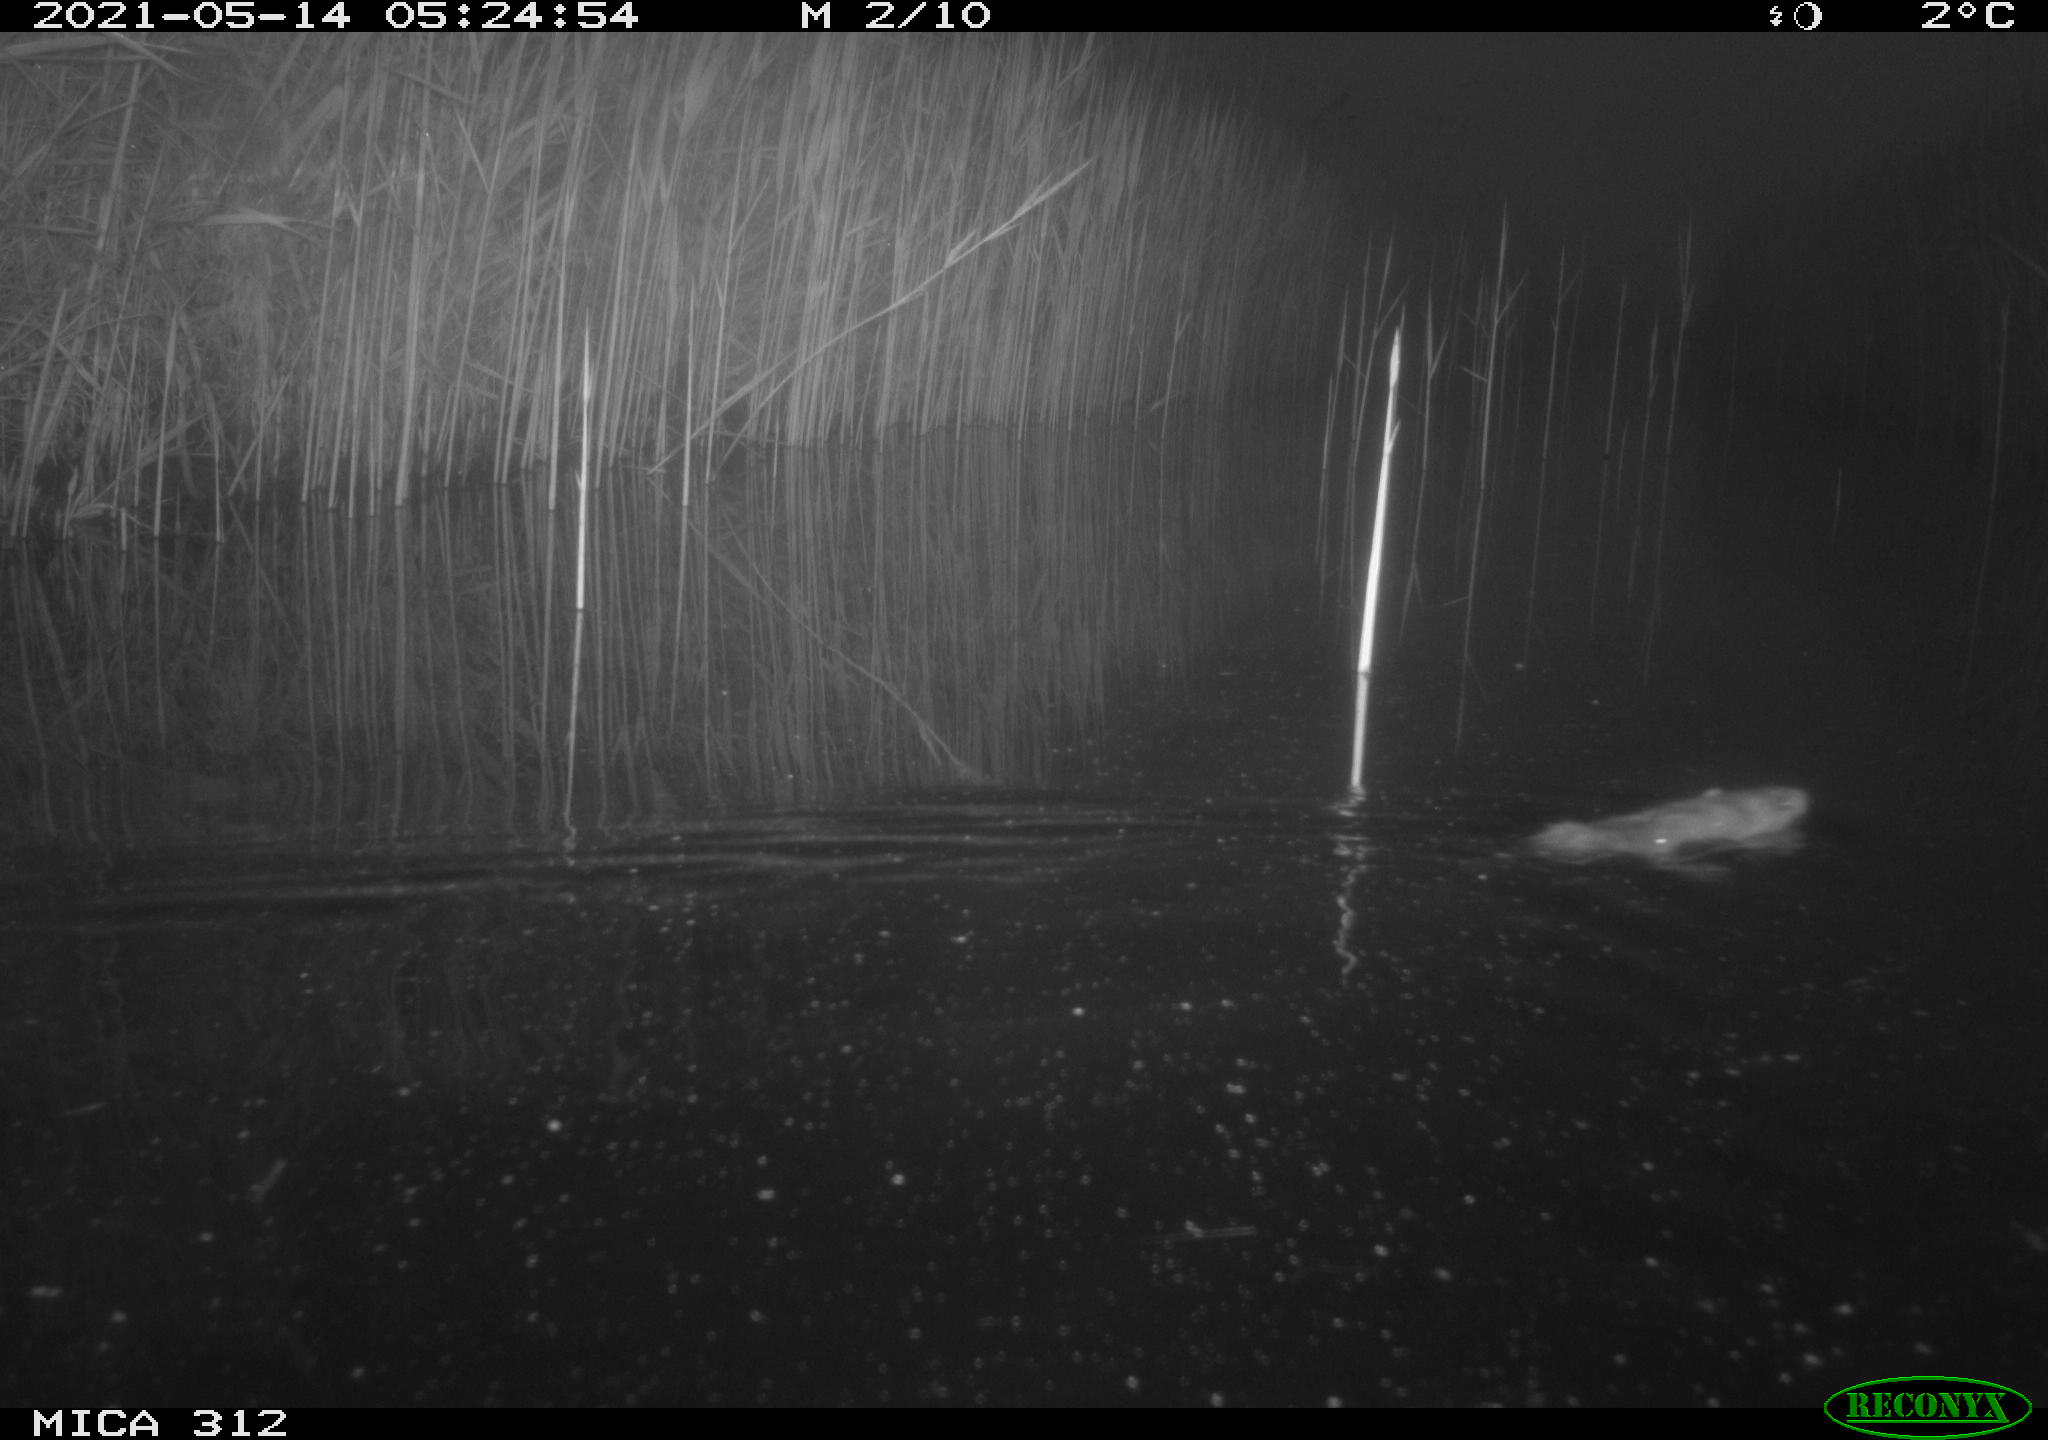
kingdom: Animalia
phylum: Chordata
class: Mammalia
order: Rodentia
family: Muridae
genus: Rattus
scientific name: Rattus norvegicus
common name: Brown rat
